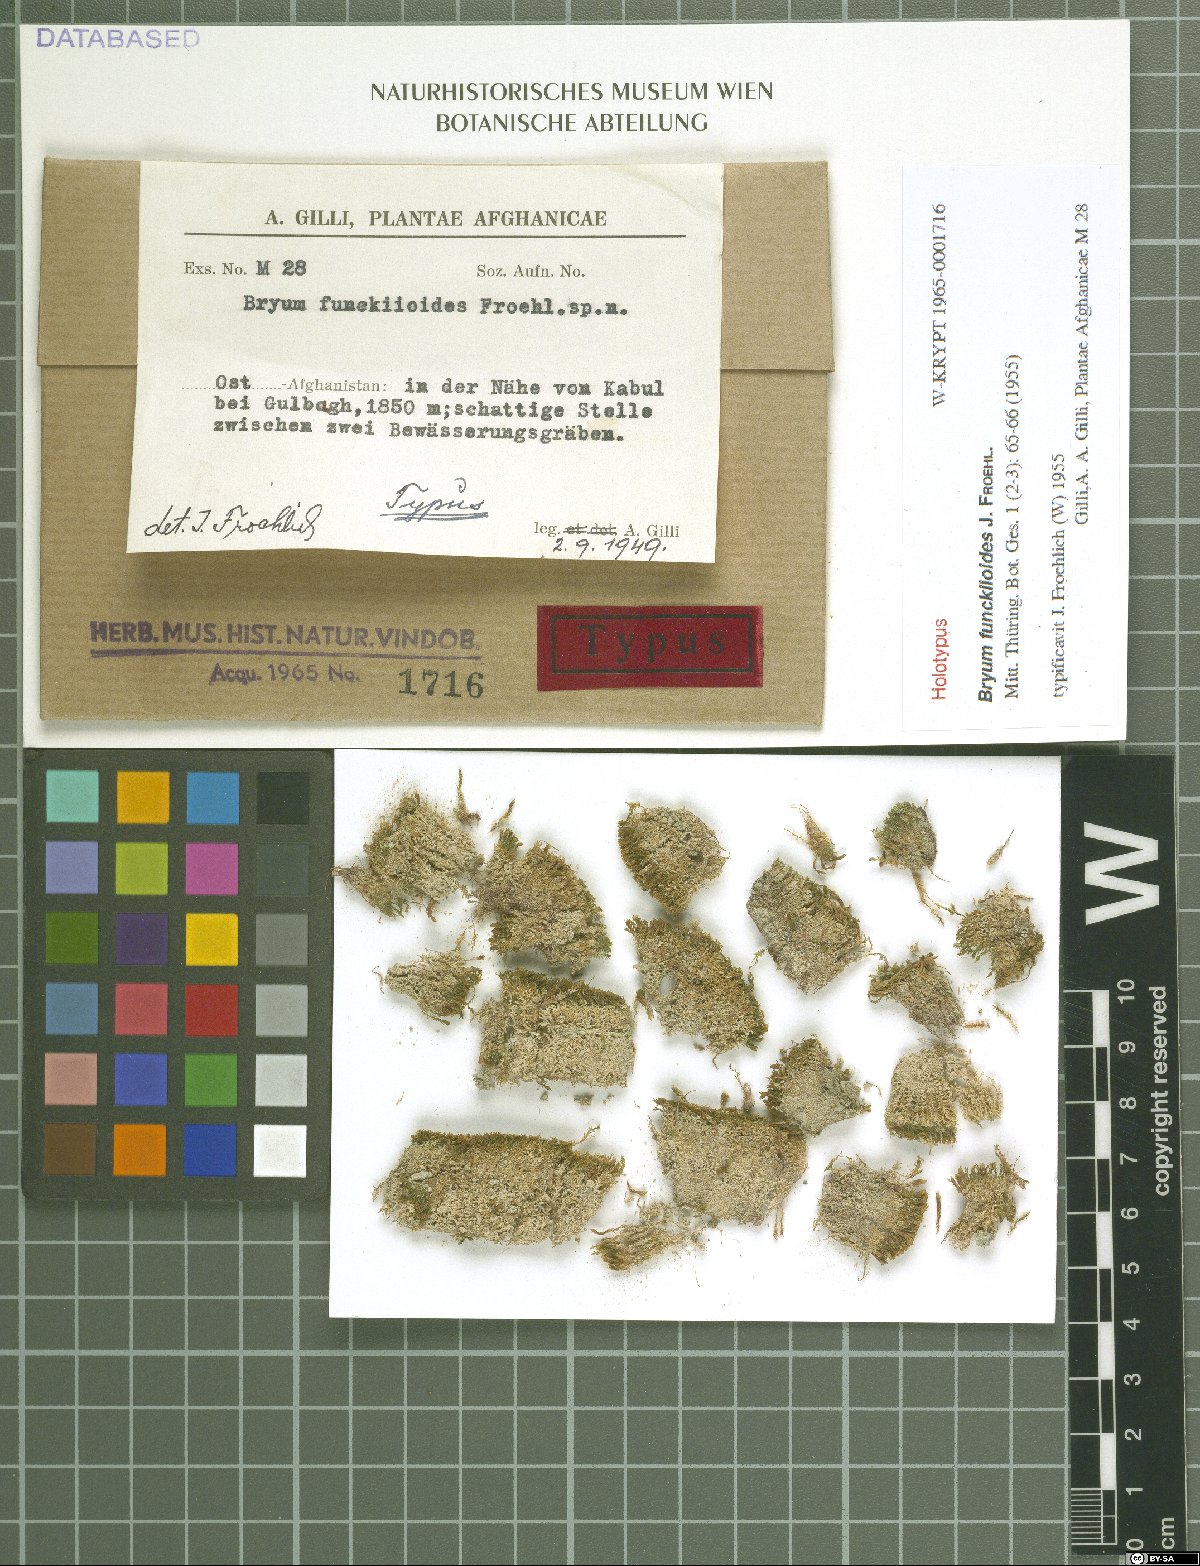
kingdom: Plantae
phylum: Bryophyta
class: Bryopsida
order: Bryales
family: Bryaceae
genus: Bryum
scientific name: Bryum funckiioides
